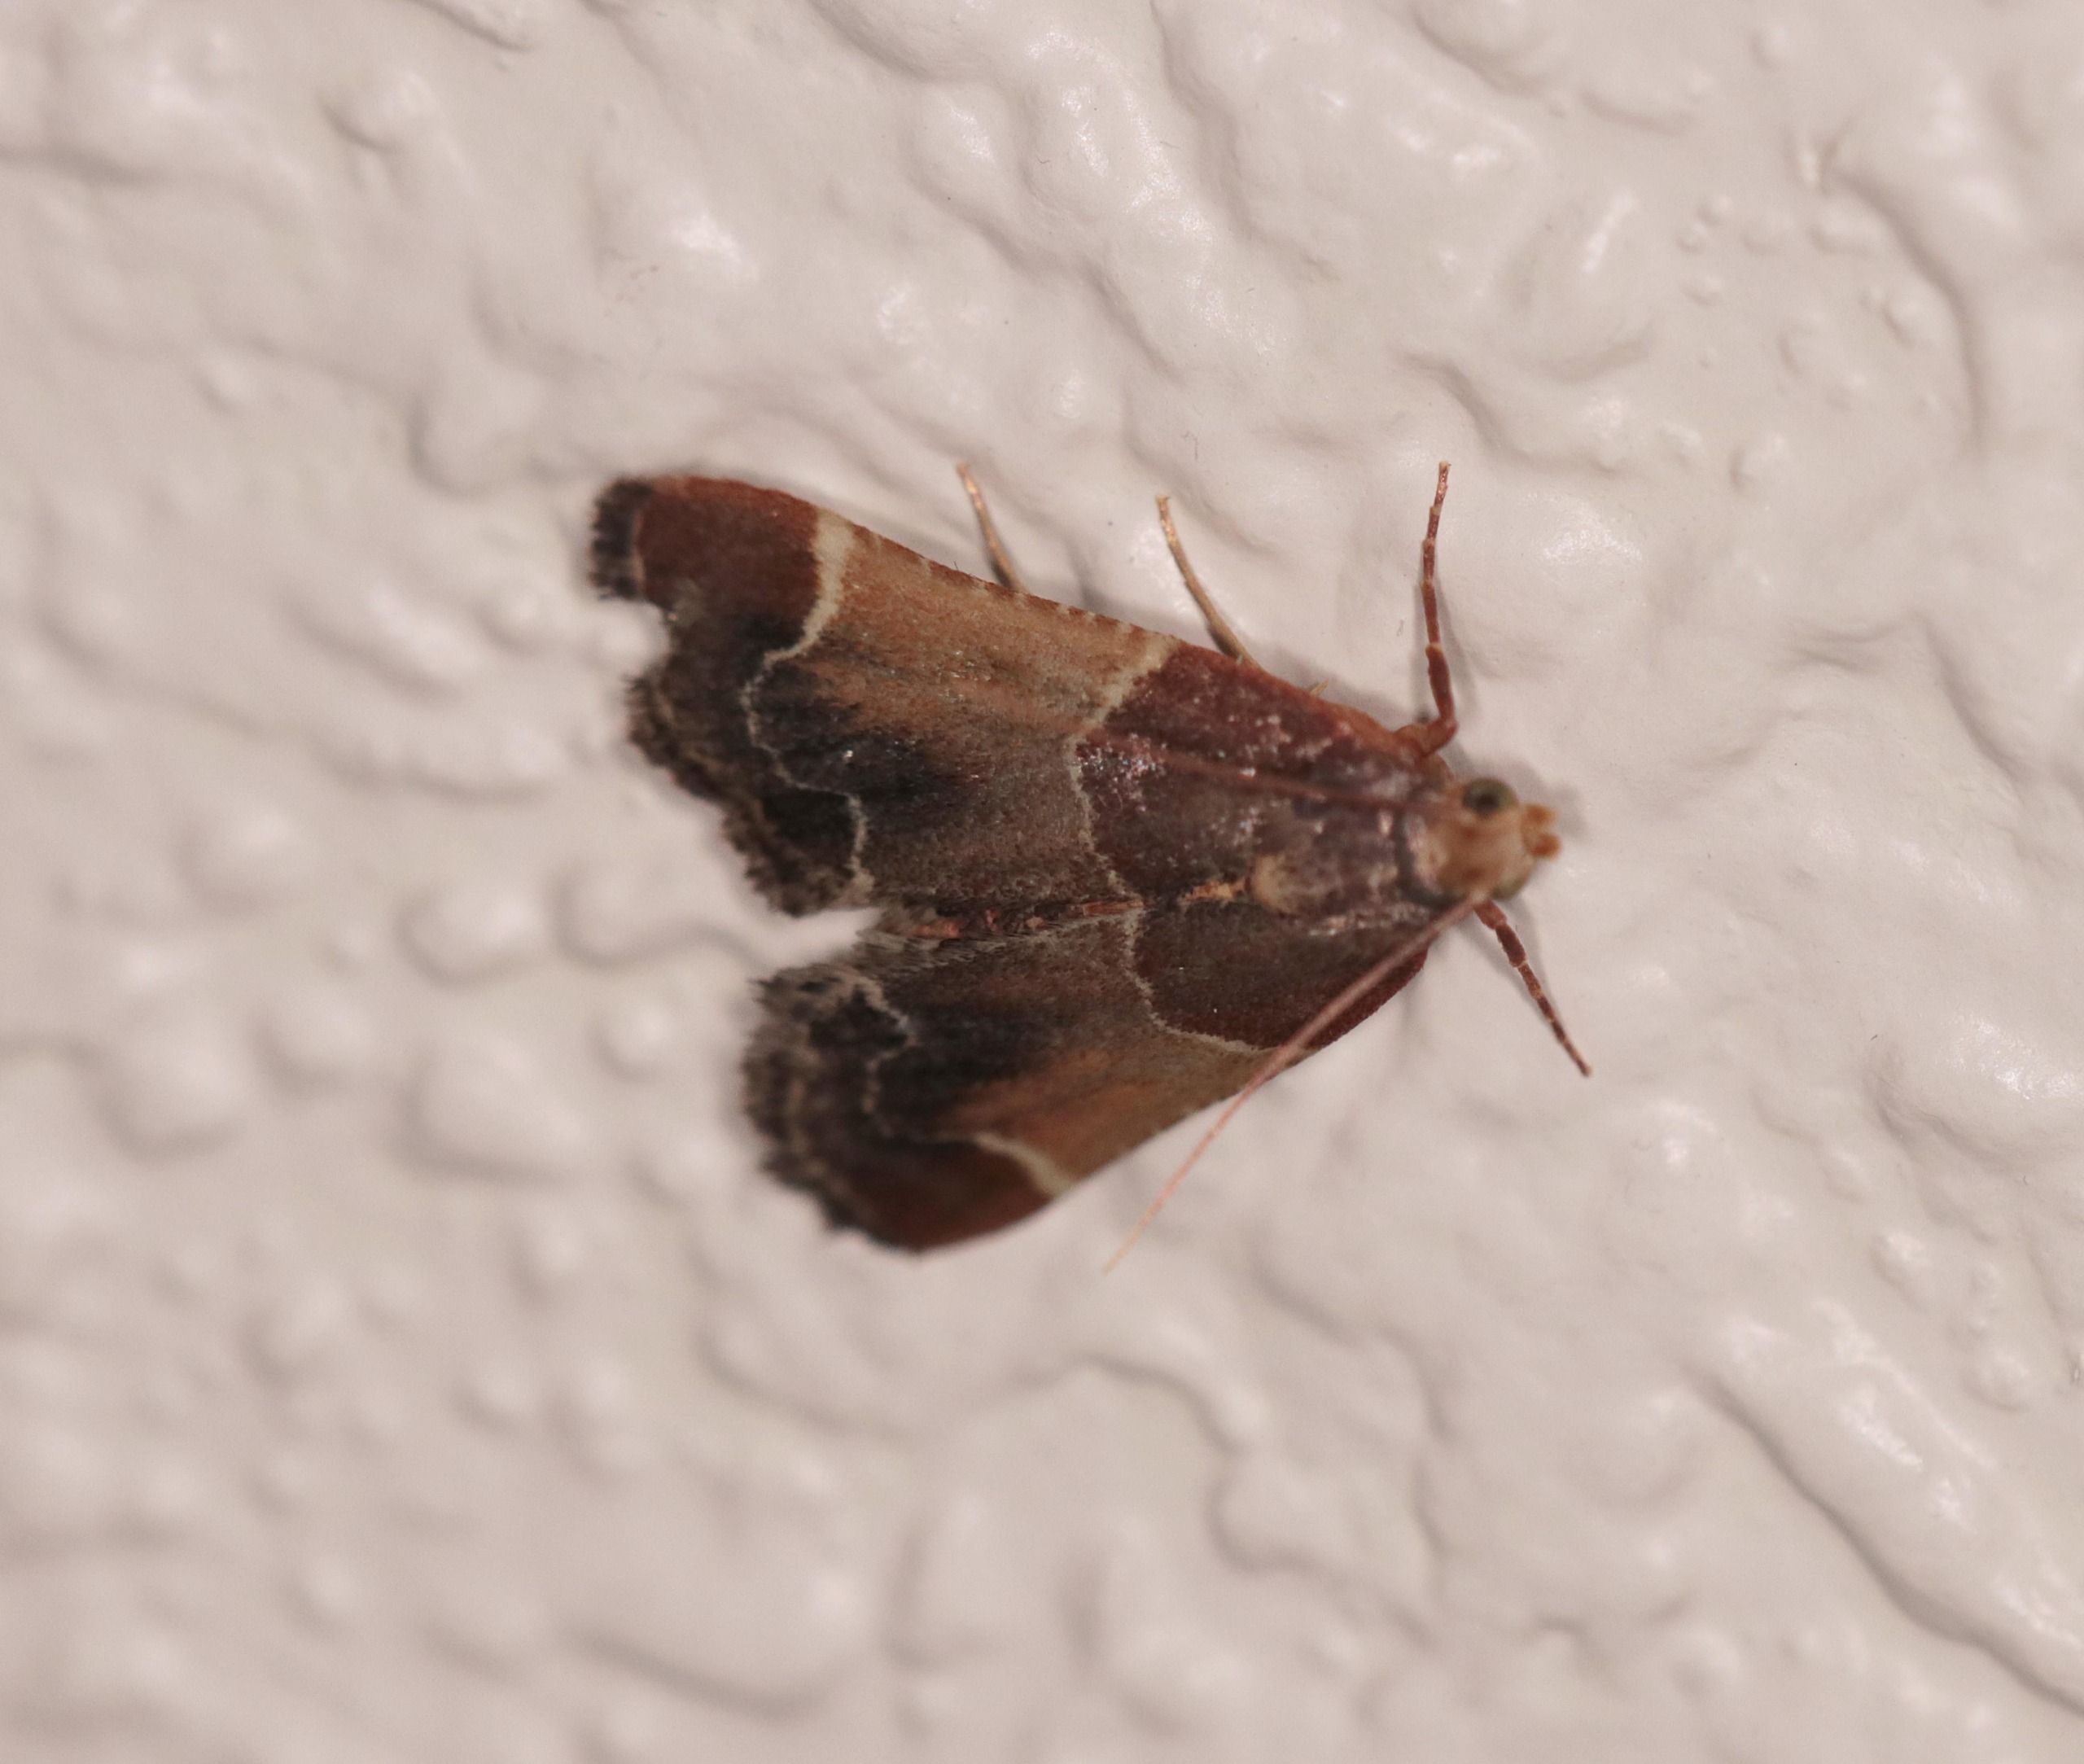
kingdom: Animalia
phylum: Arthropoda
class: Insecta
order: Lepidoptera
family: Pyralidae
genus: Pyralis
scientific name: Pyralis farinalis
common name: Stort melmøl
